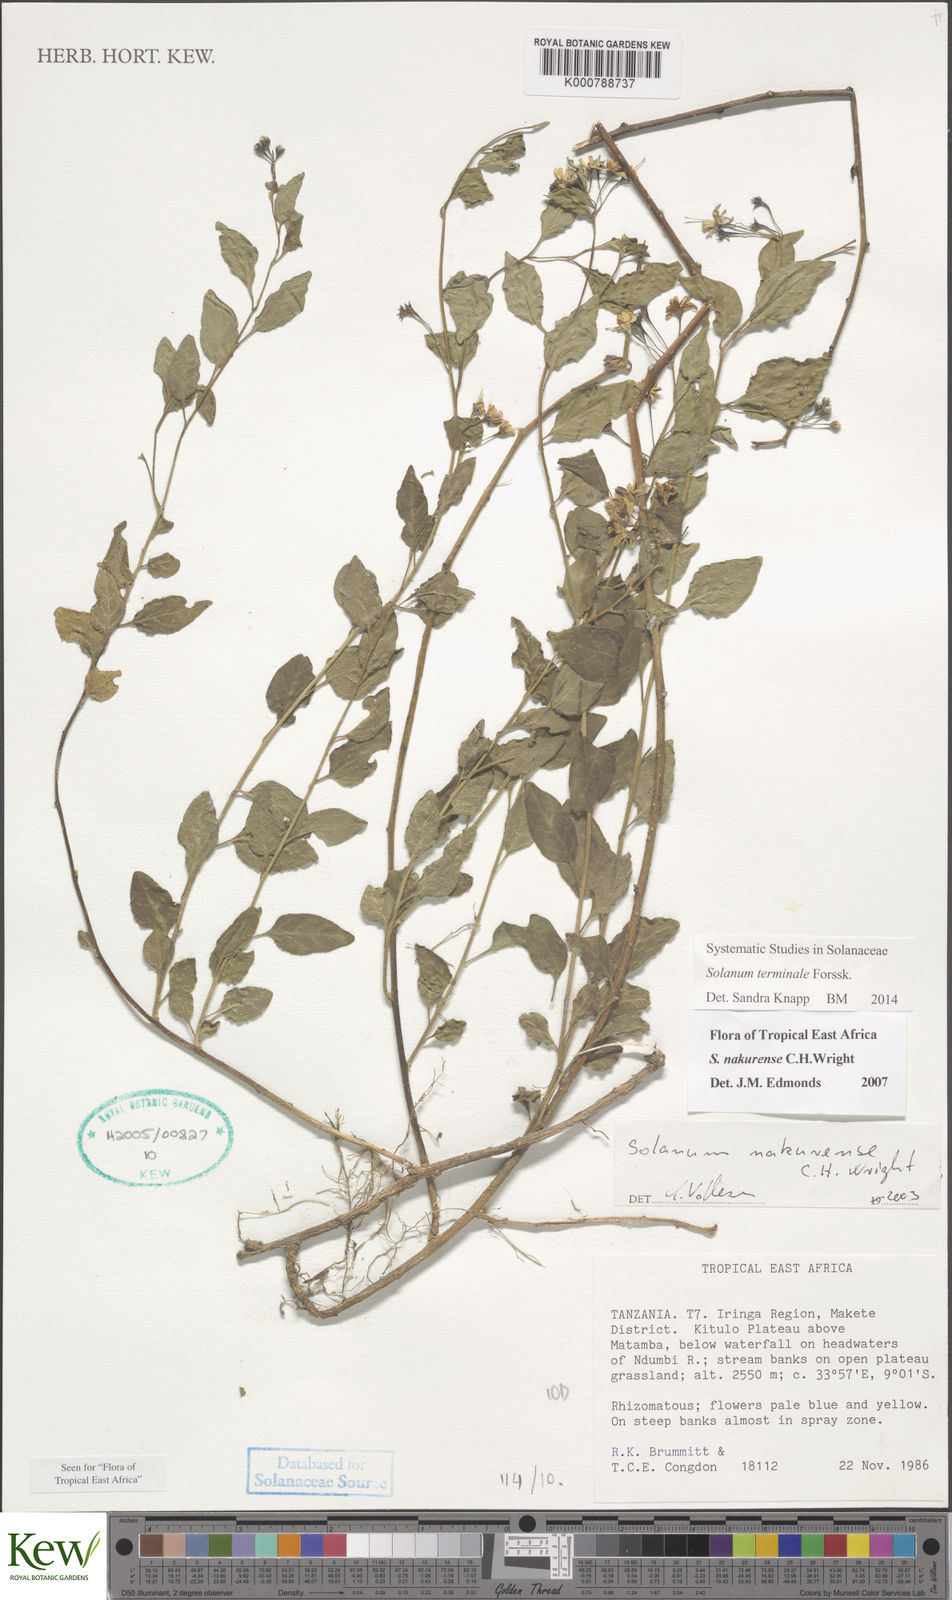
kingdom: Plantae
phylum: Tracheophyta
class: Magnoliopsida
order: Solanales
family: Solanaceae
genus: Solanum
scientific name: Solanum terminale
